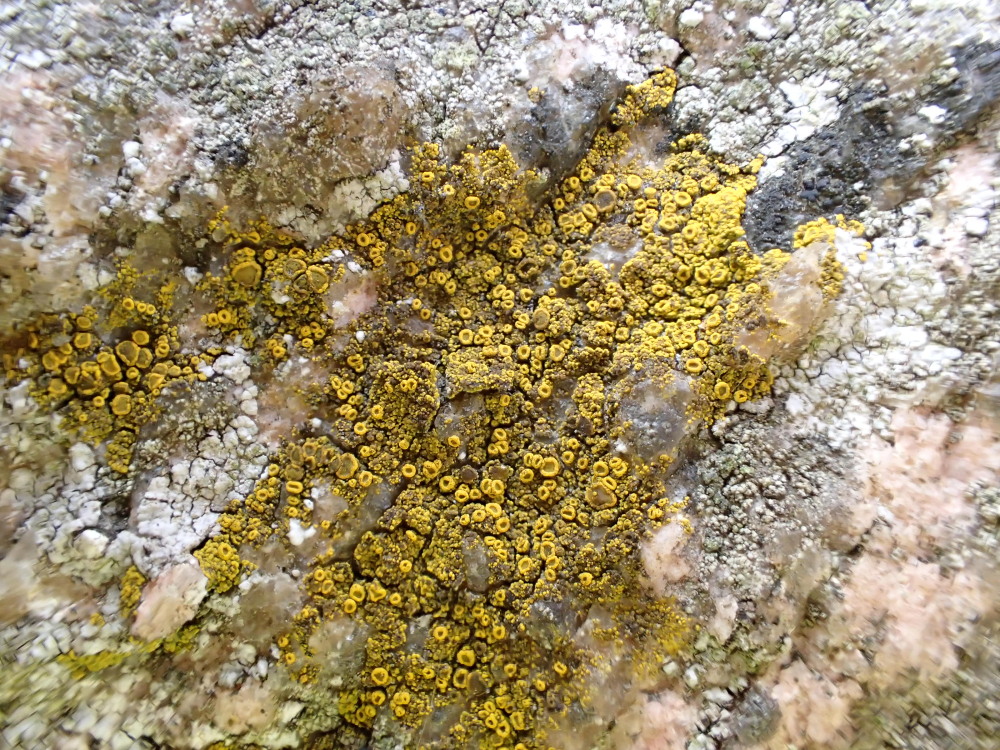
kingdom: Fungi
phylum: Ascomycota
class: Candelariomycetes
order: Candelariales
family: Candelariaceae
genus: Candelariella
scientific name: Candelariella vitellina
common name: almindelig æggeblommelav
